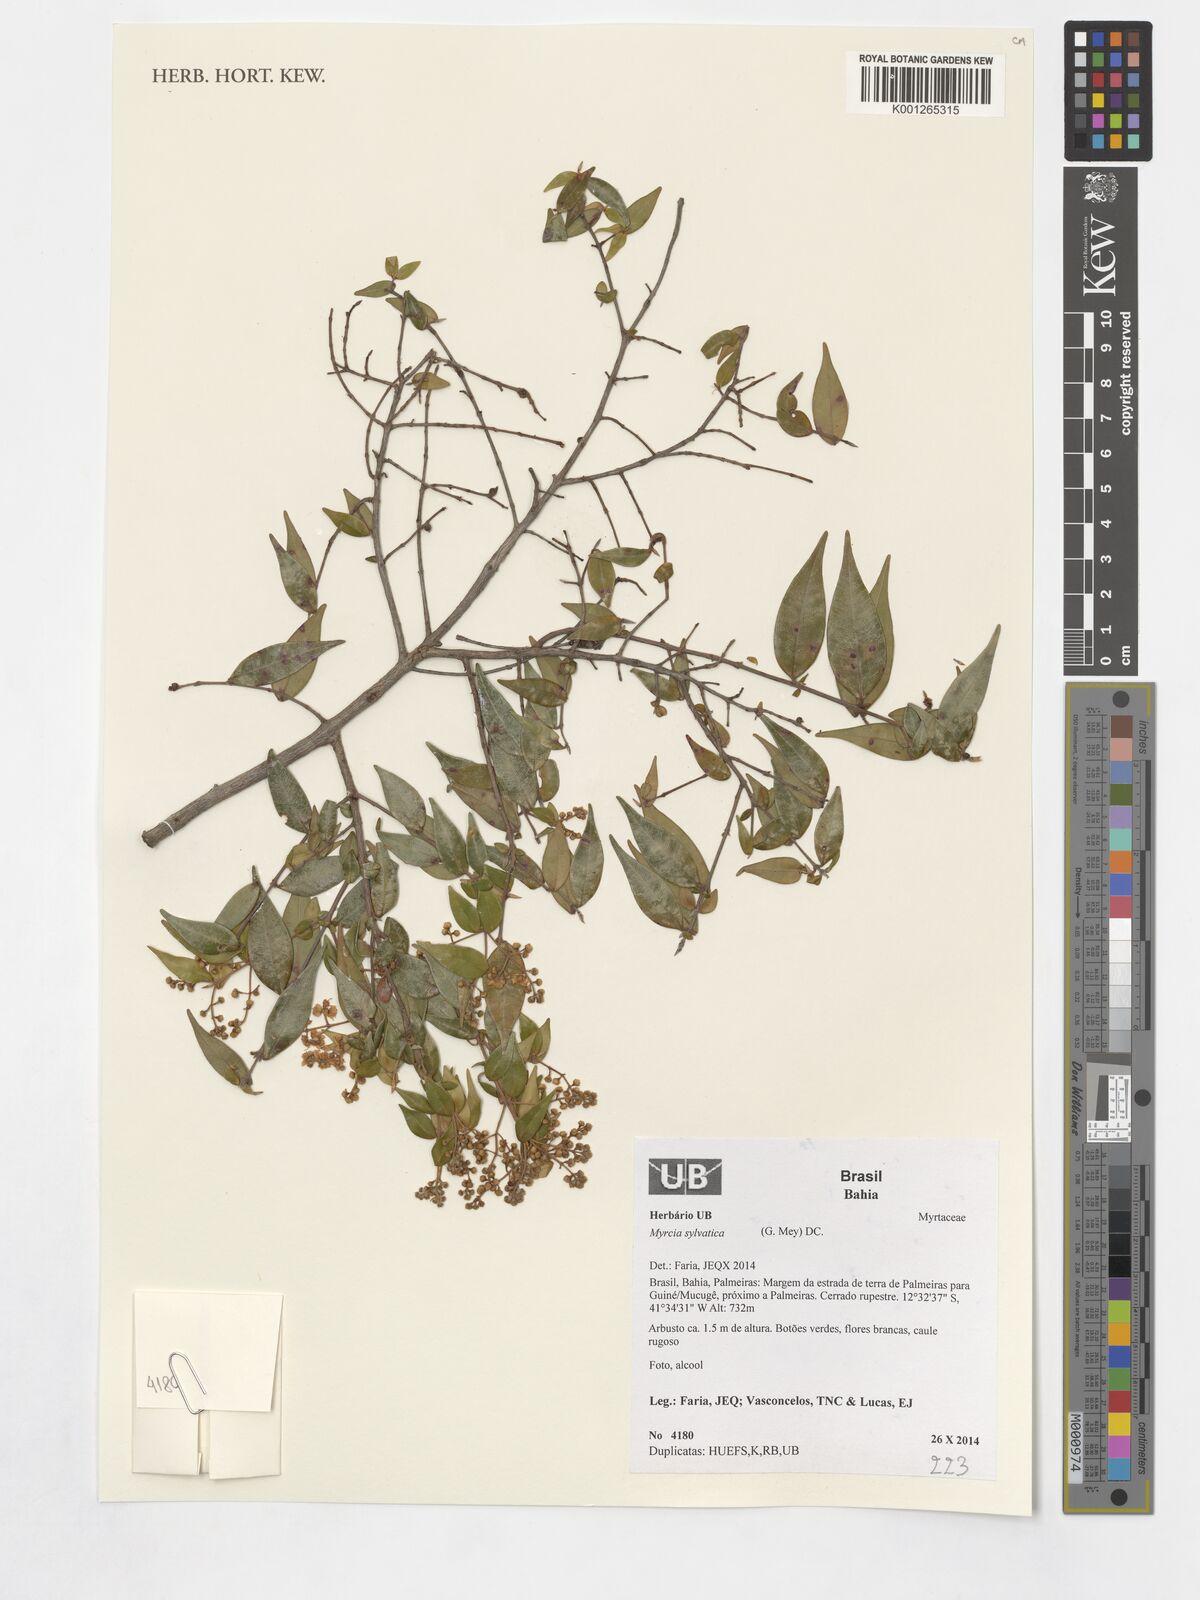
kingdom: Plantae
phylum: Tracheophyta
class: Magnoliopsida
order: Myrtales
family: Myrtaceae
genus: Myrcia
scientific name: Myrcia sylvatica
